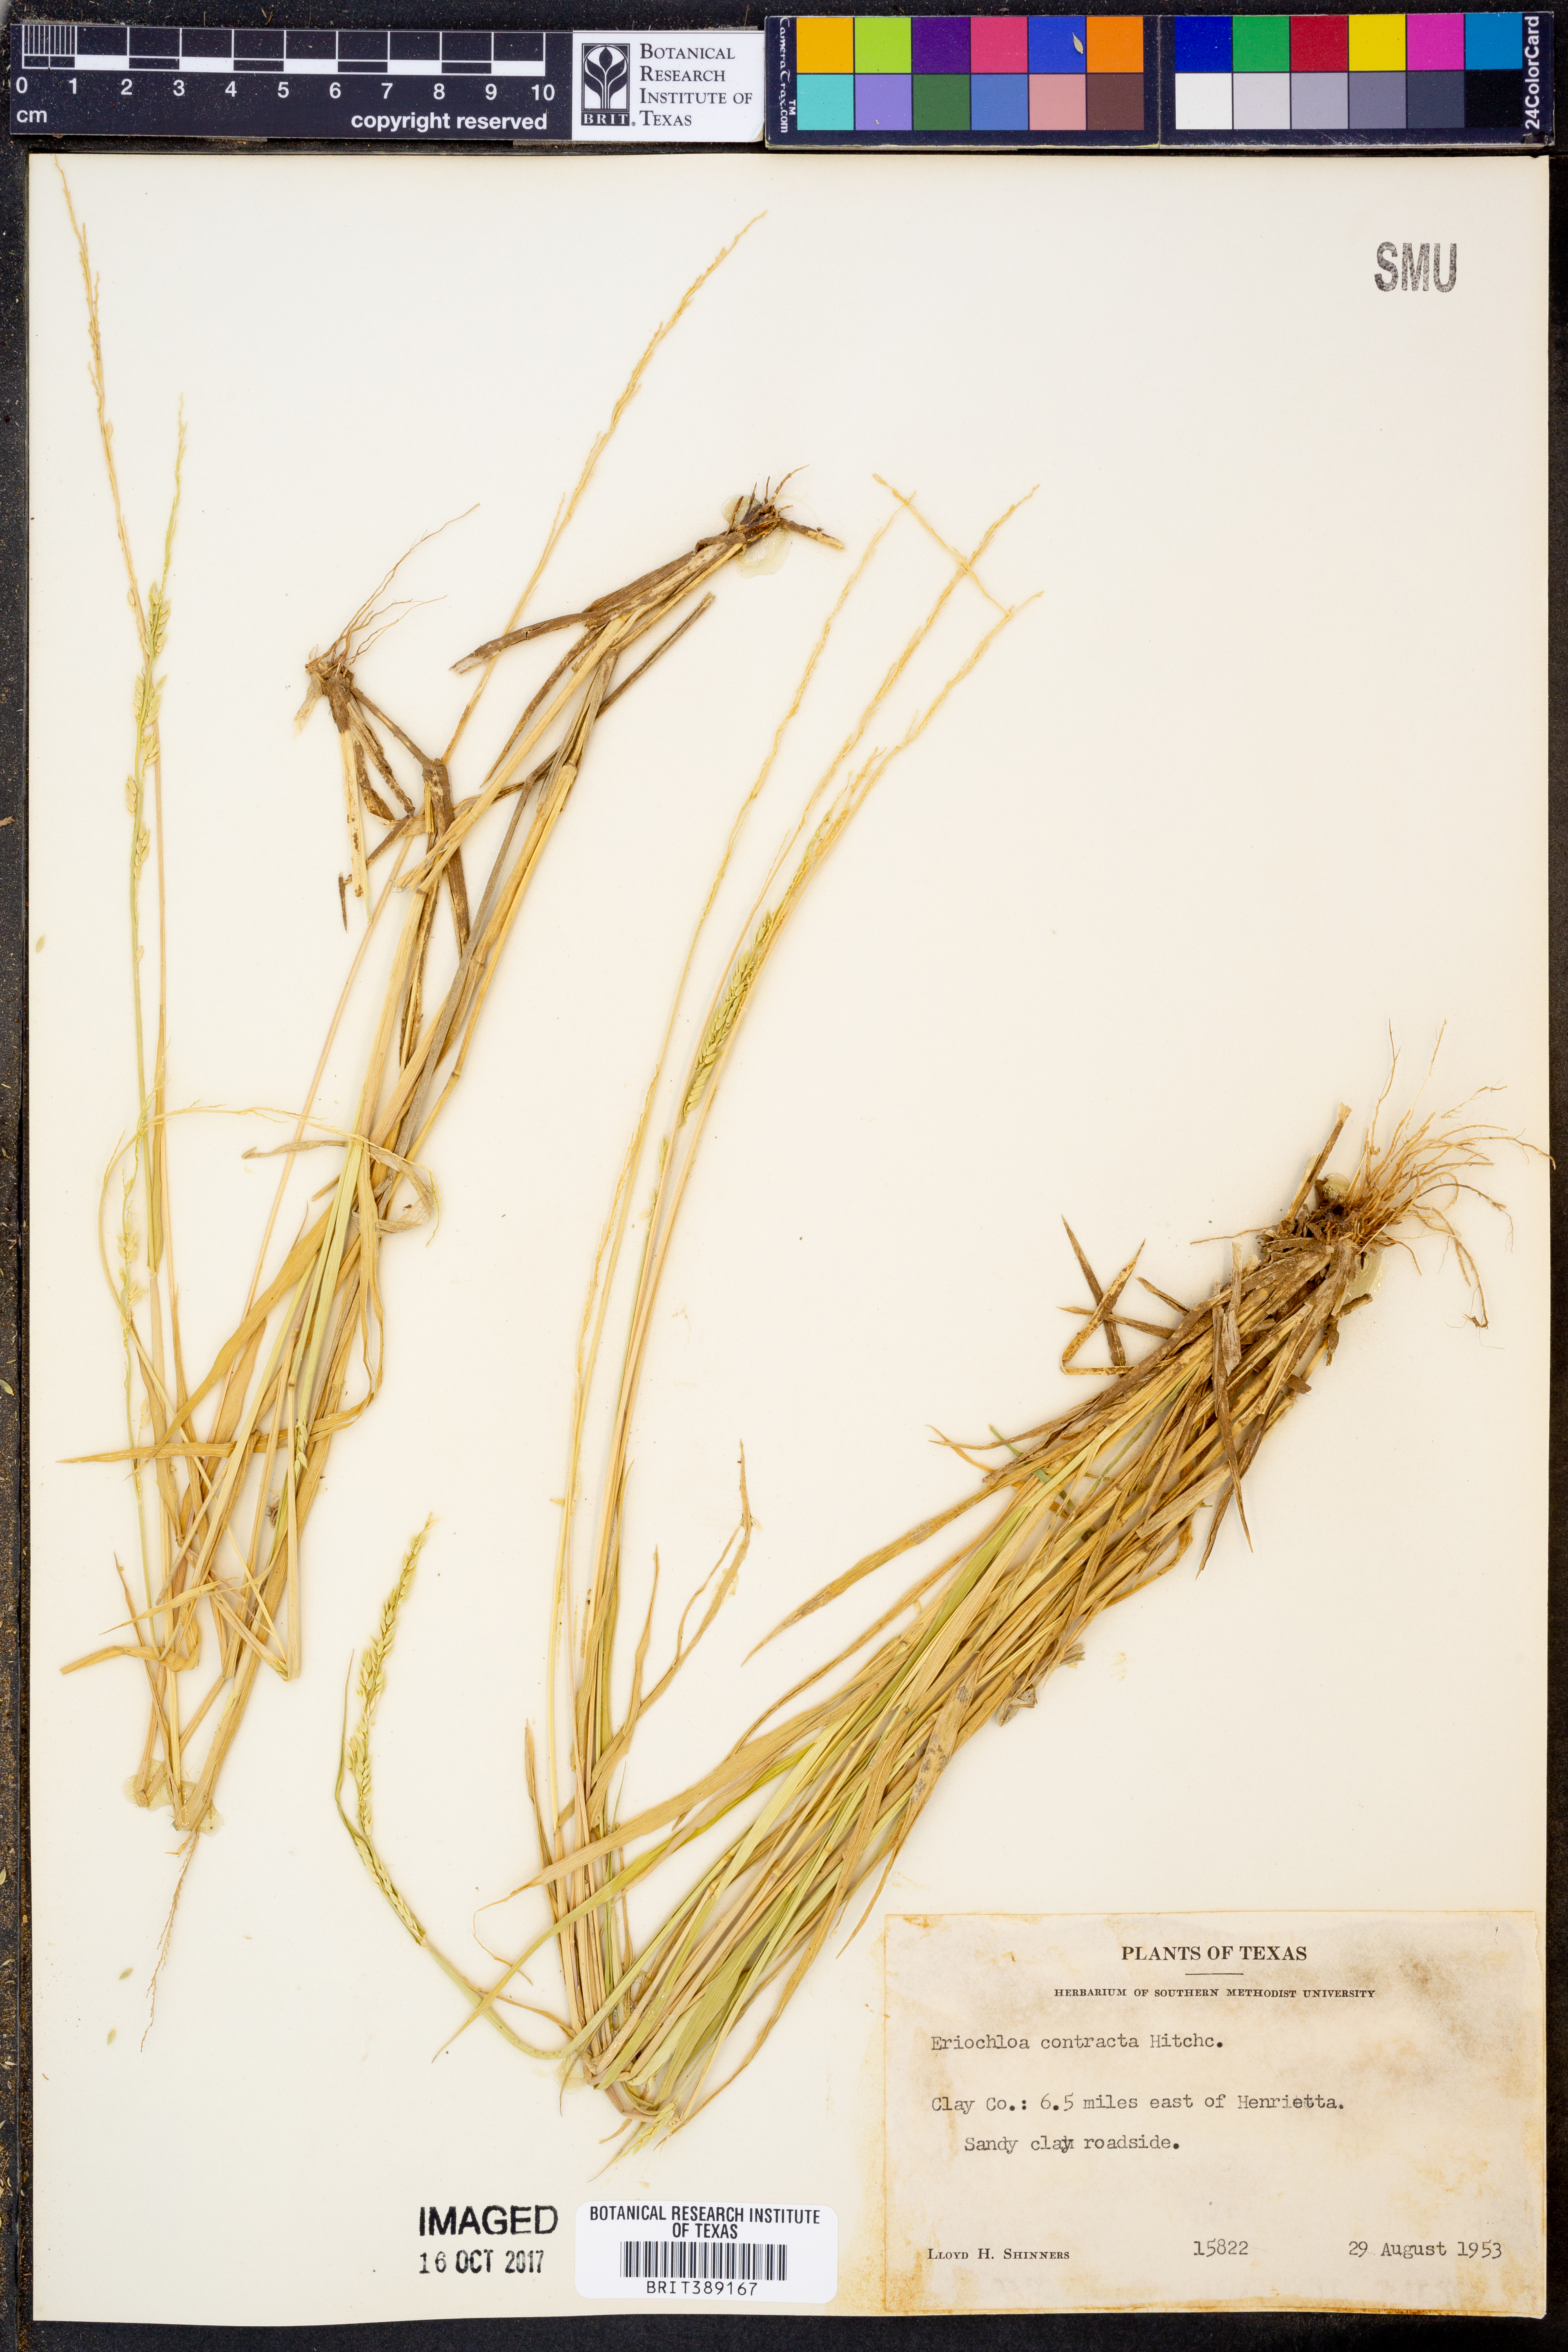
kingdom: Plantae
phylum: Tracheophyta
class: Liliopsida
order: Poales
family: Poaceae
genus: Eriochloa
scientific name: Eriochloa contracta
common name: Prairie cup grass
